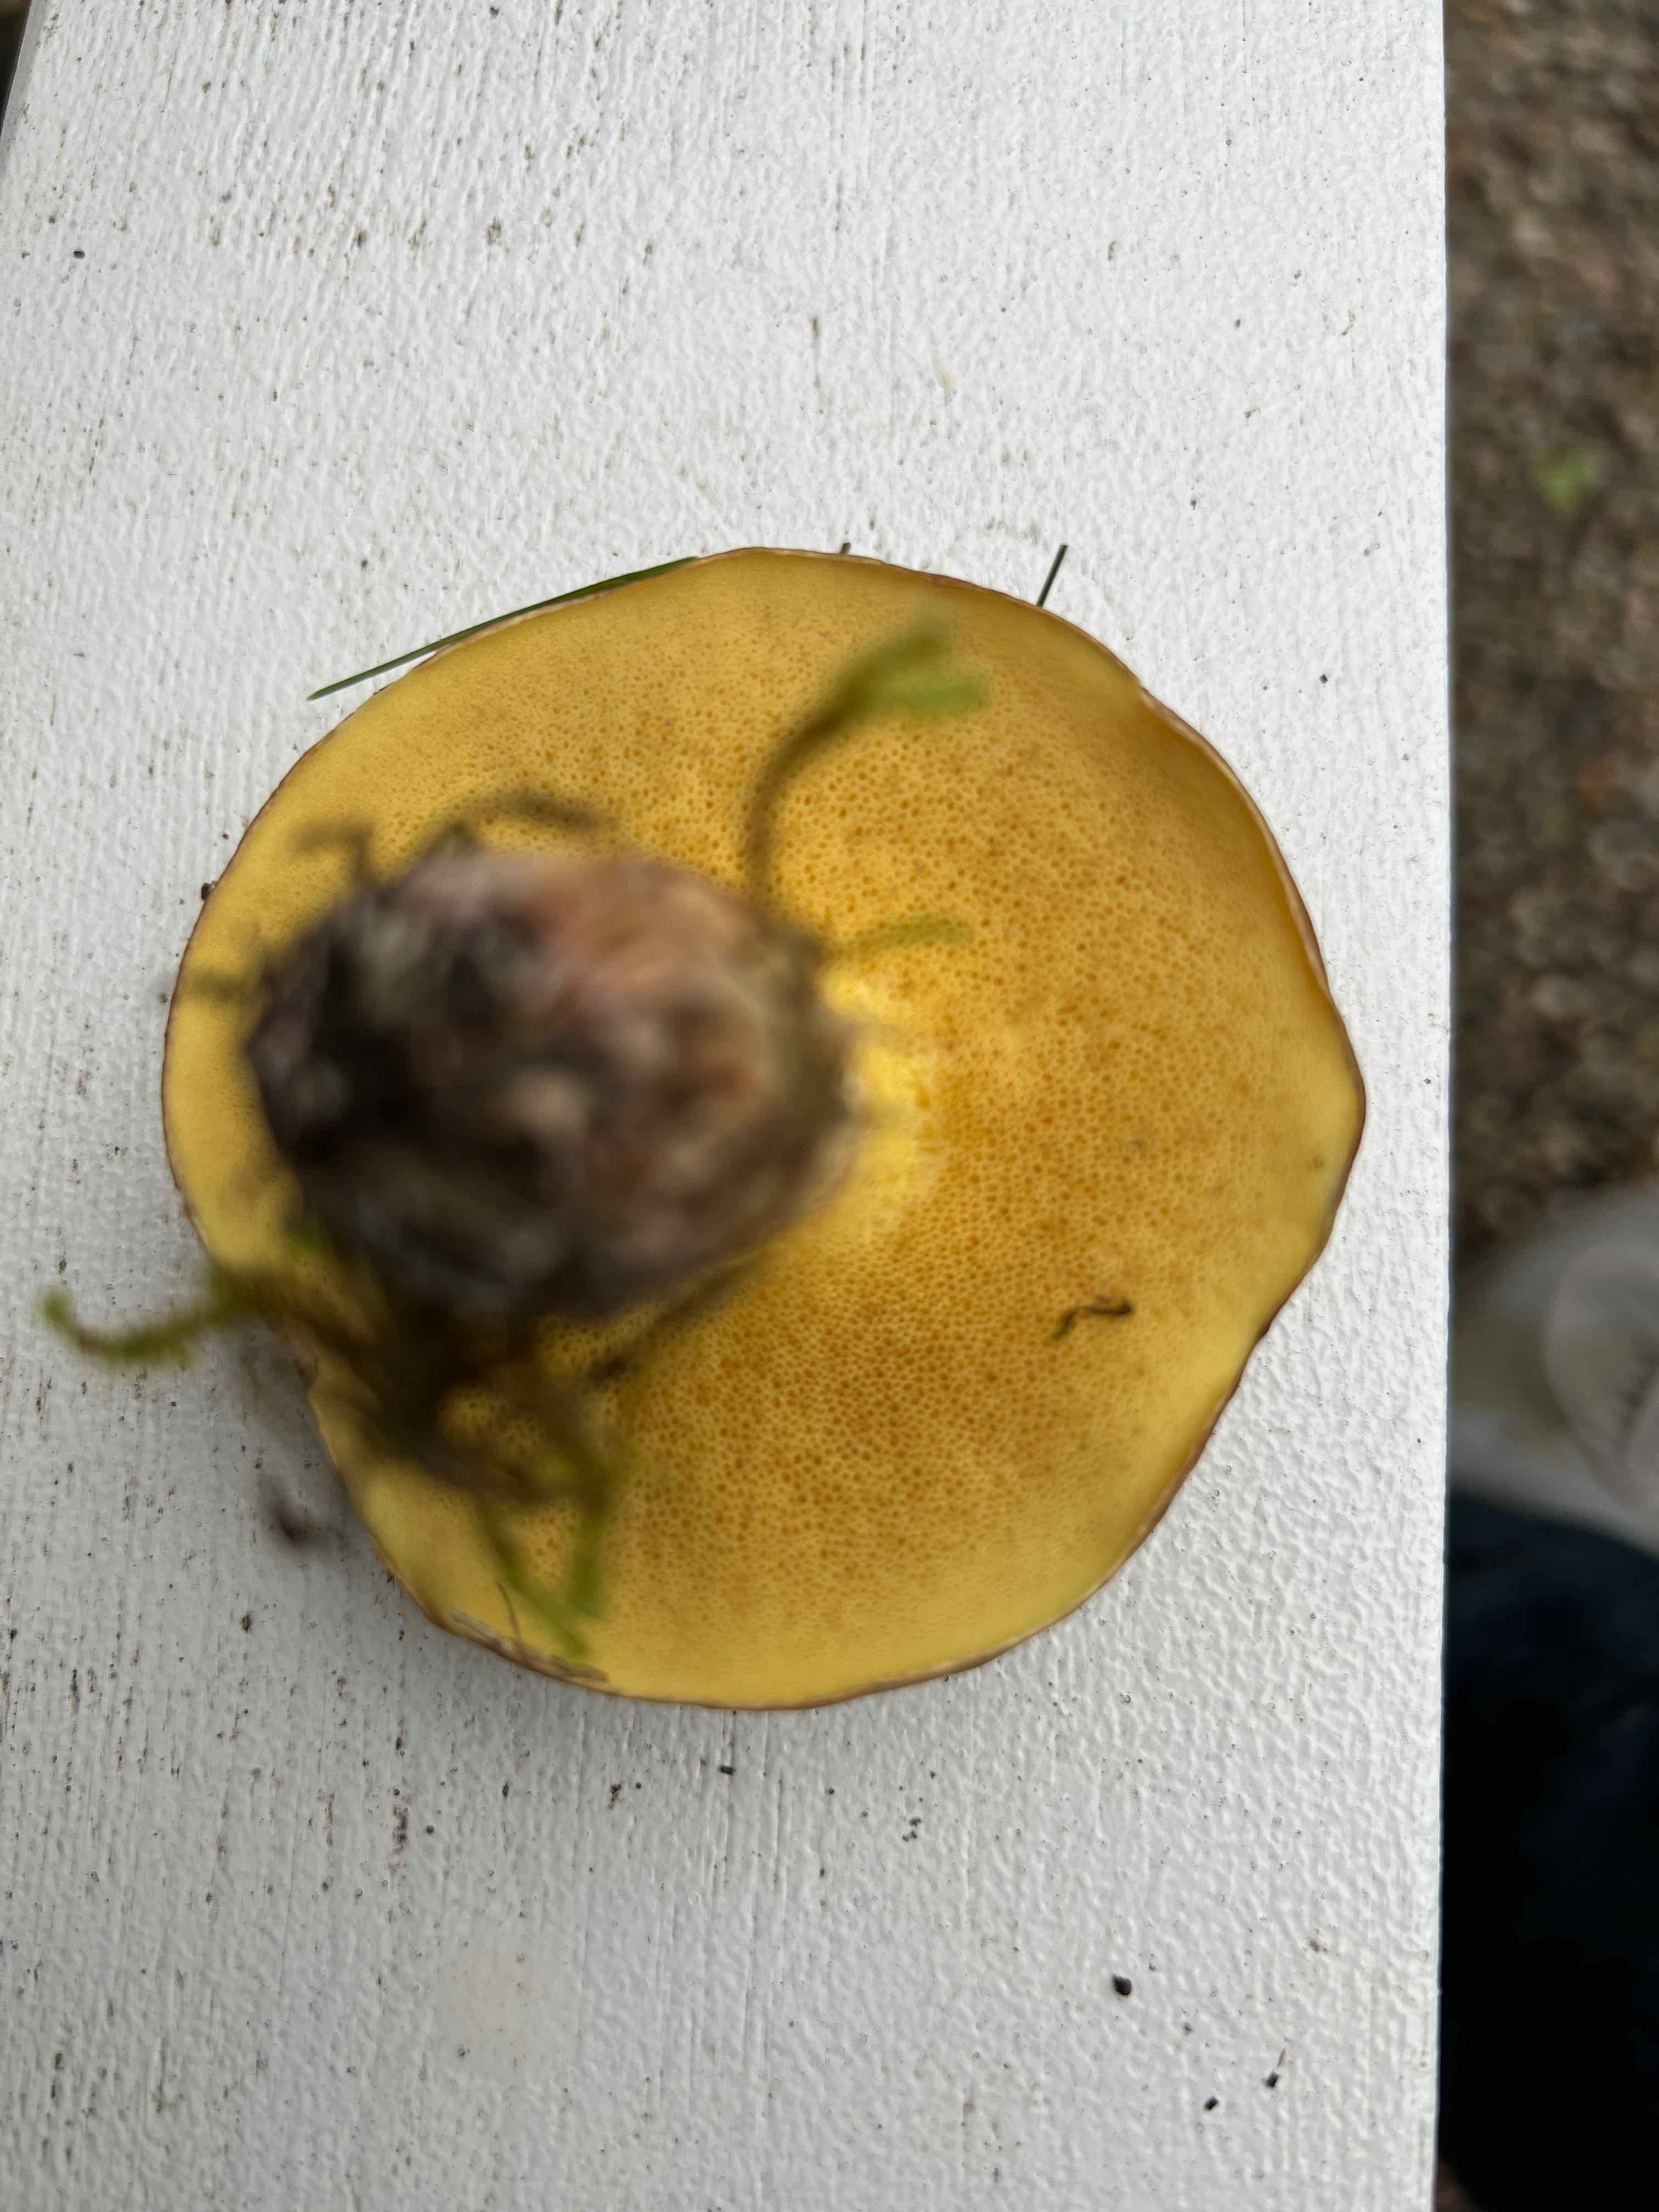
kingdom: Fungi
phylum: Basidiomycota
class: Agaricomycetes
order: Boletales
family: Suillaceae
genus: Suillus
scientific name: Suillus collinitus
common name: rosafodet slimrørhat
